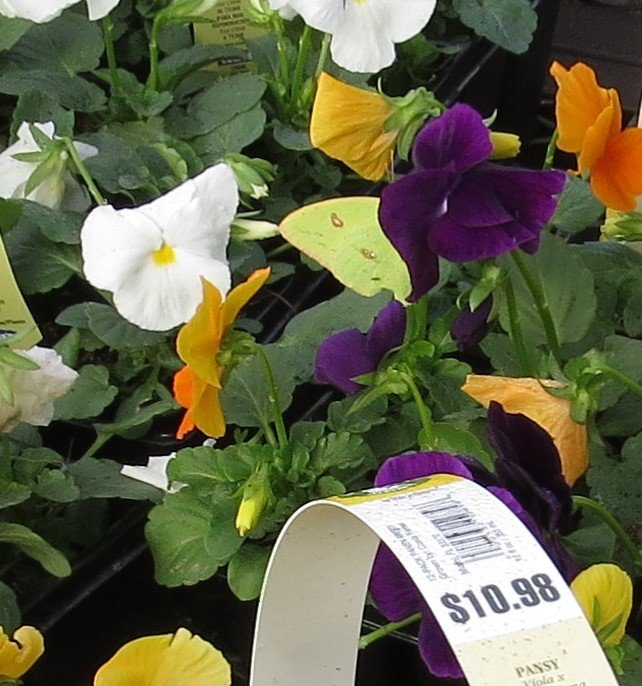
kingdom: Animalia
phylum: Arthropoda
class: Insecta
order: Lepidoptera
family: Pieridae
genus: Phoebis
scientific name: Phoebis sennae
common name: Cloudless Sulphur
